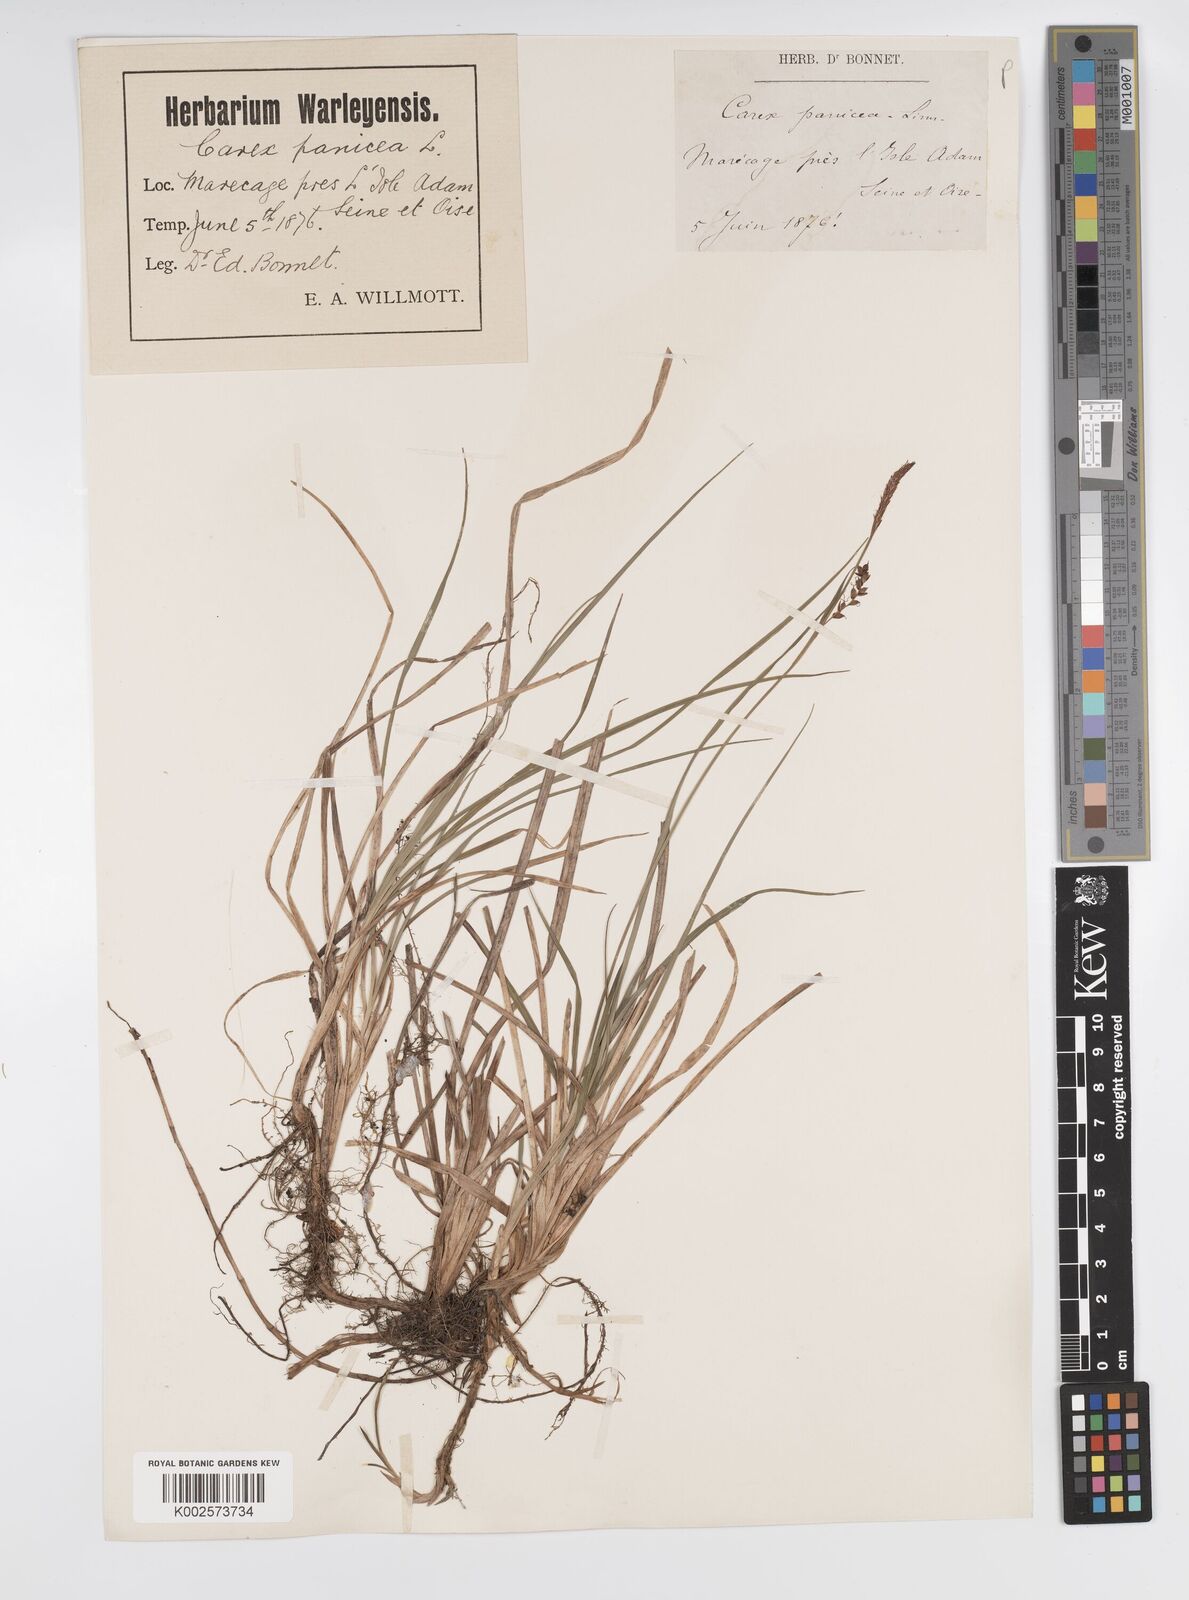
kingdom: Plantae
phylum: Tracheophyta
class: Liliopsida
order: Poales
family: Cyperaceae
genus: Carex
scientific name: Carex panicea
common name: Carnation sedge
